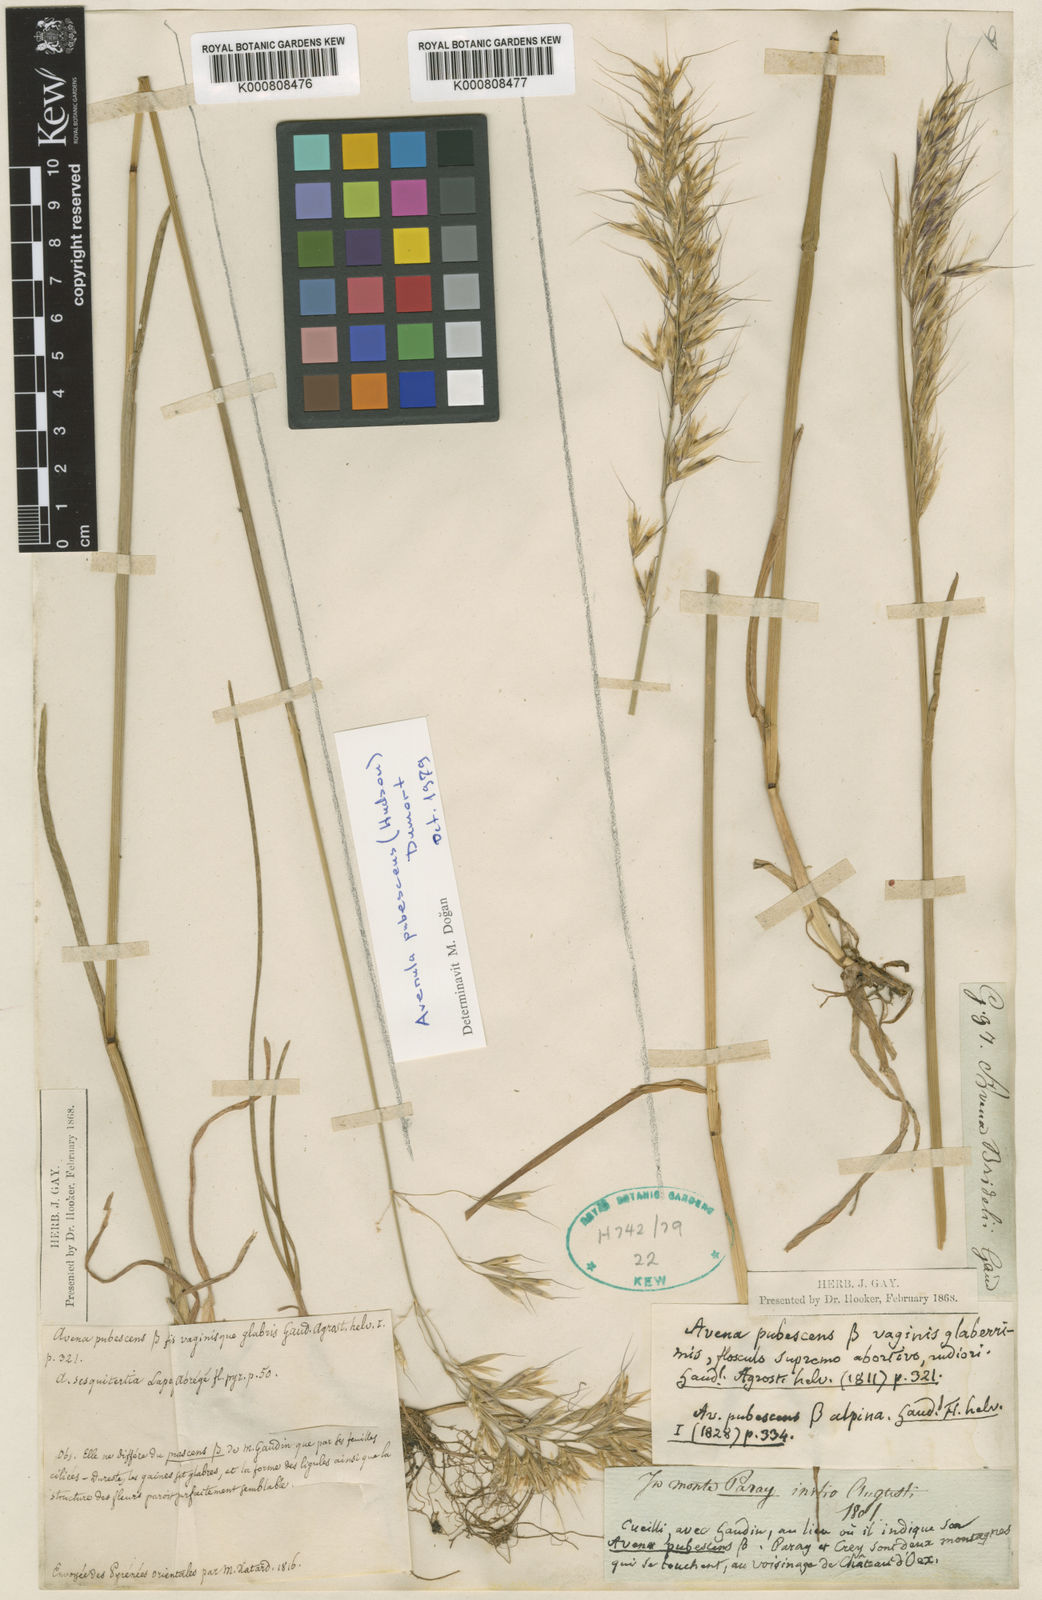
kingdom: Plantae
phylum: Tracheophyta
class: Liliopsida
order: Poales
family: Poaceae
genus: Avenula
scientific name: Avenula pubescens
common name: Downy alpine oatgrass
